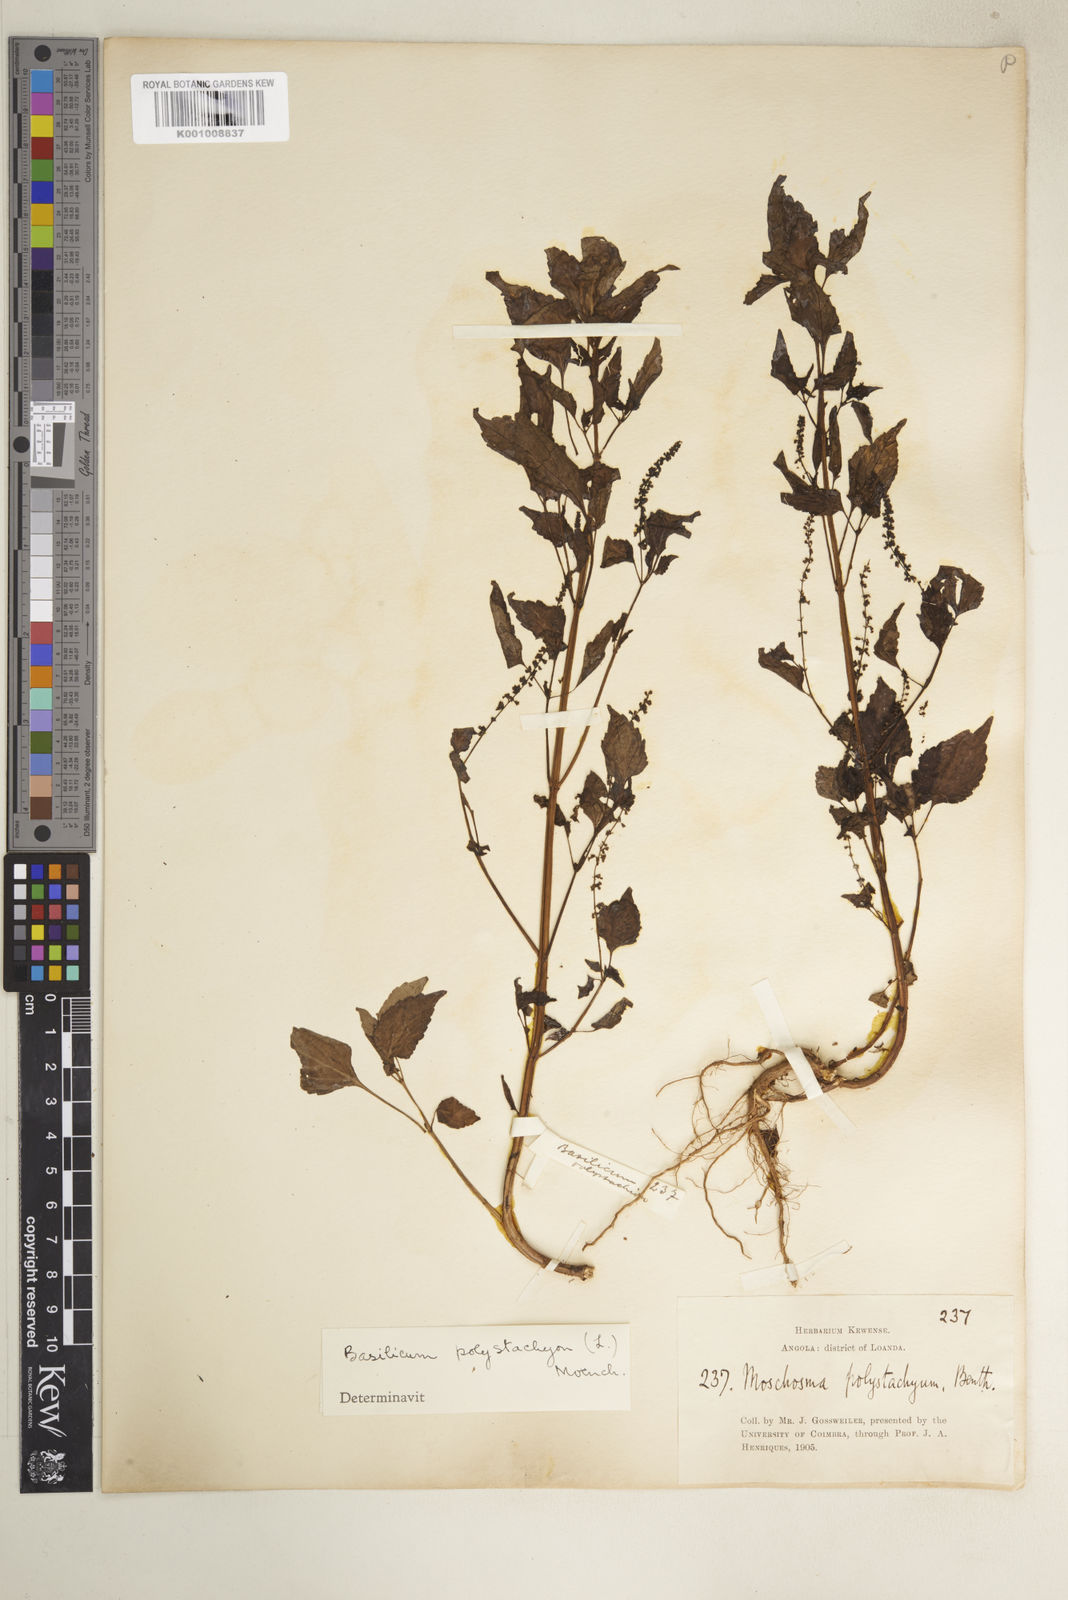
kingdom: Plantae
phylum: Tracheophyta
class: Magnoliopsida
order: Lamiales
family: Lamiaceae
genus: Basilicum
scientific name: Basilicum polystachyon
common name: Musk-basil
